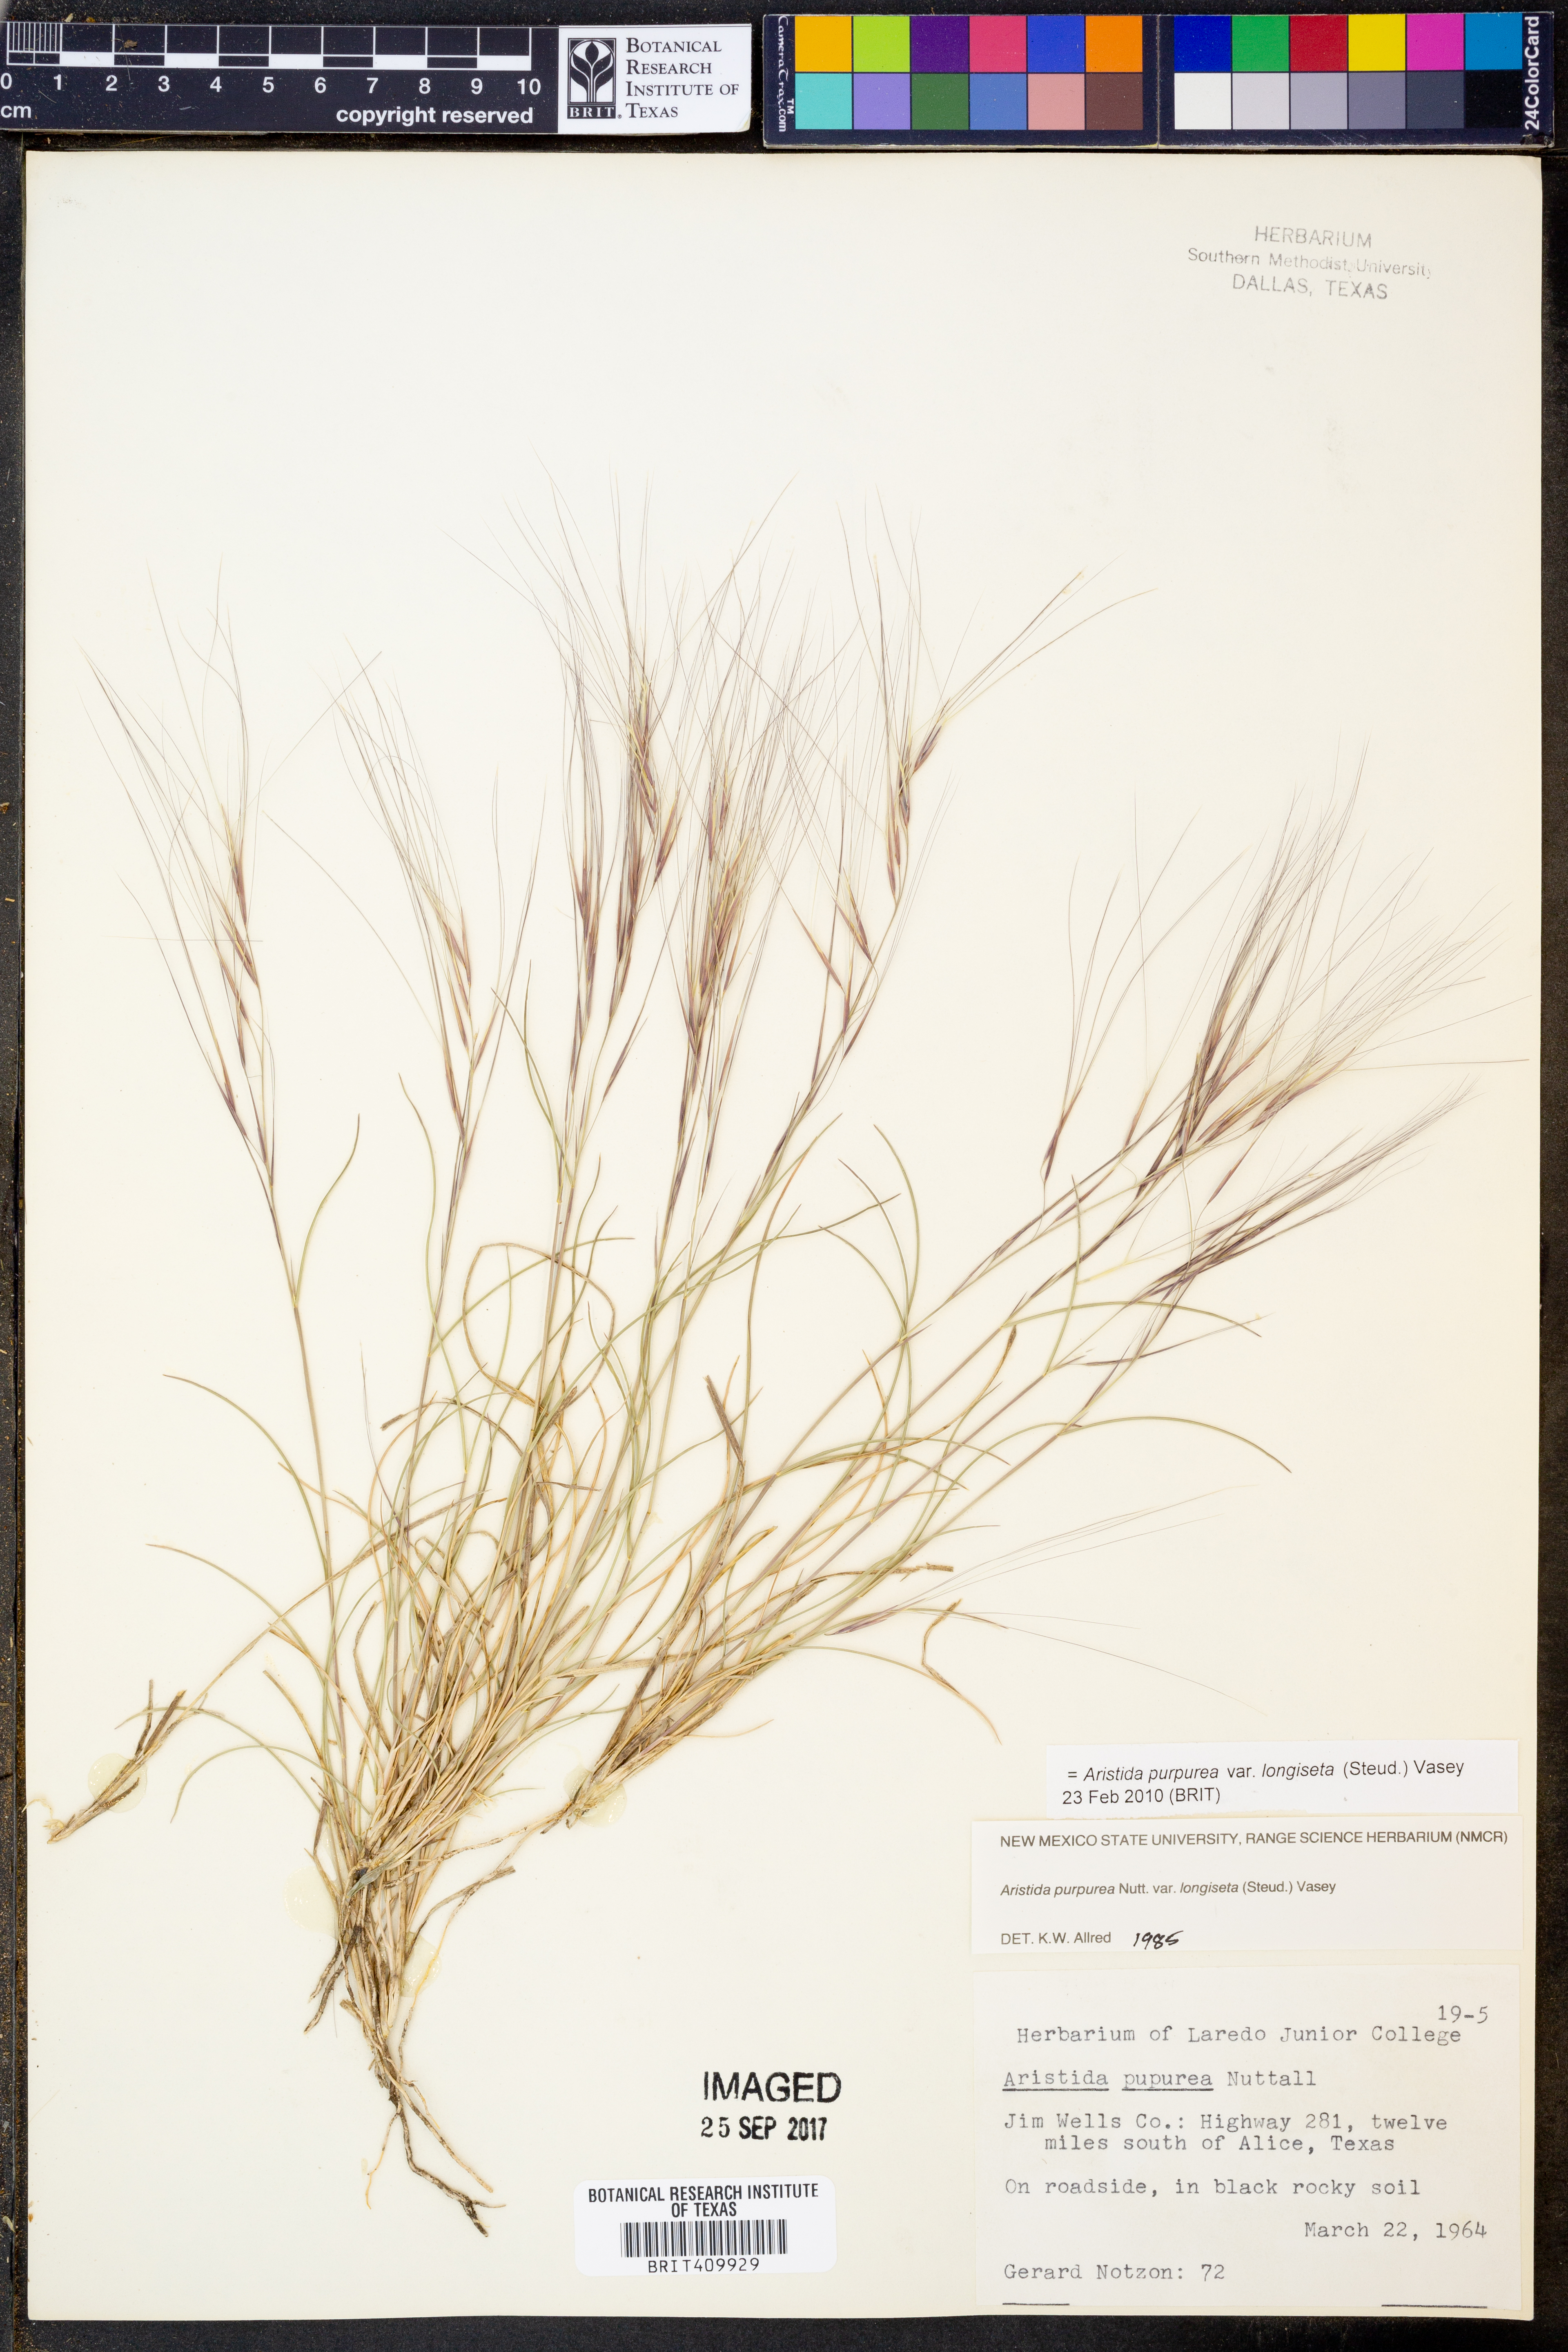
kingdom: Plantae
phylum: Tracheophyta
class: Liliopsida
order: Poales
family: Poaceae
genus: Aristida
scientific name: Aristida longiseta
